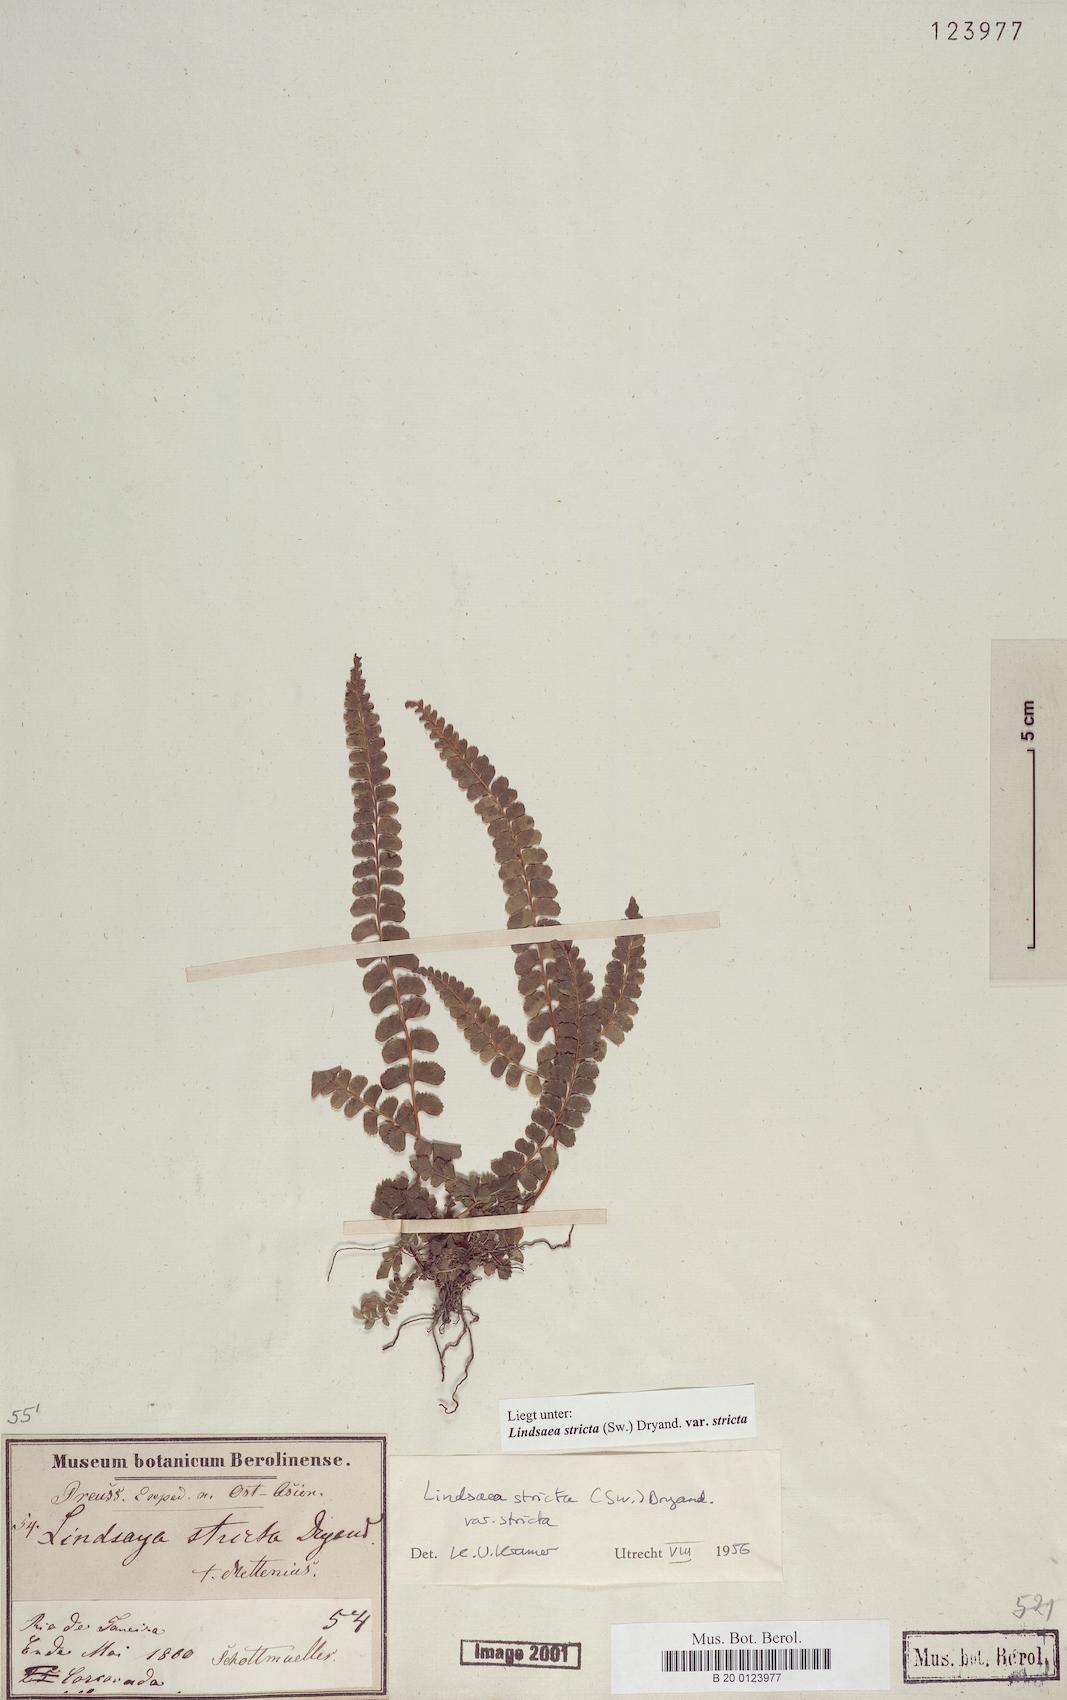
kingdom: Plantae
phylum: Tracheophyta
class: Polypodiopsida
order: Polypodiales
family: Lindsaeaceae
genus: Lindsaea
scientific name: Lindsaea stricta
